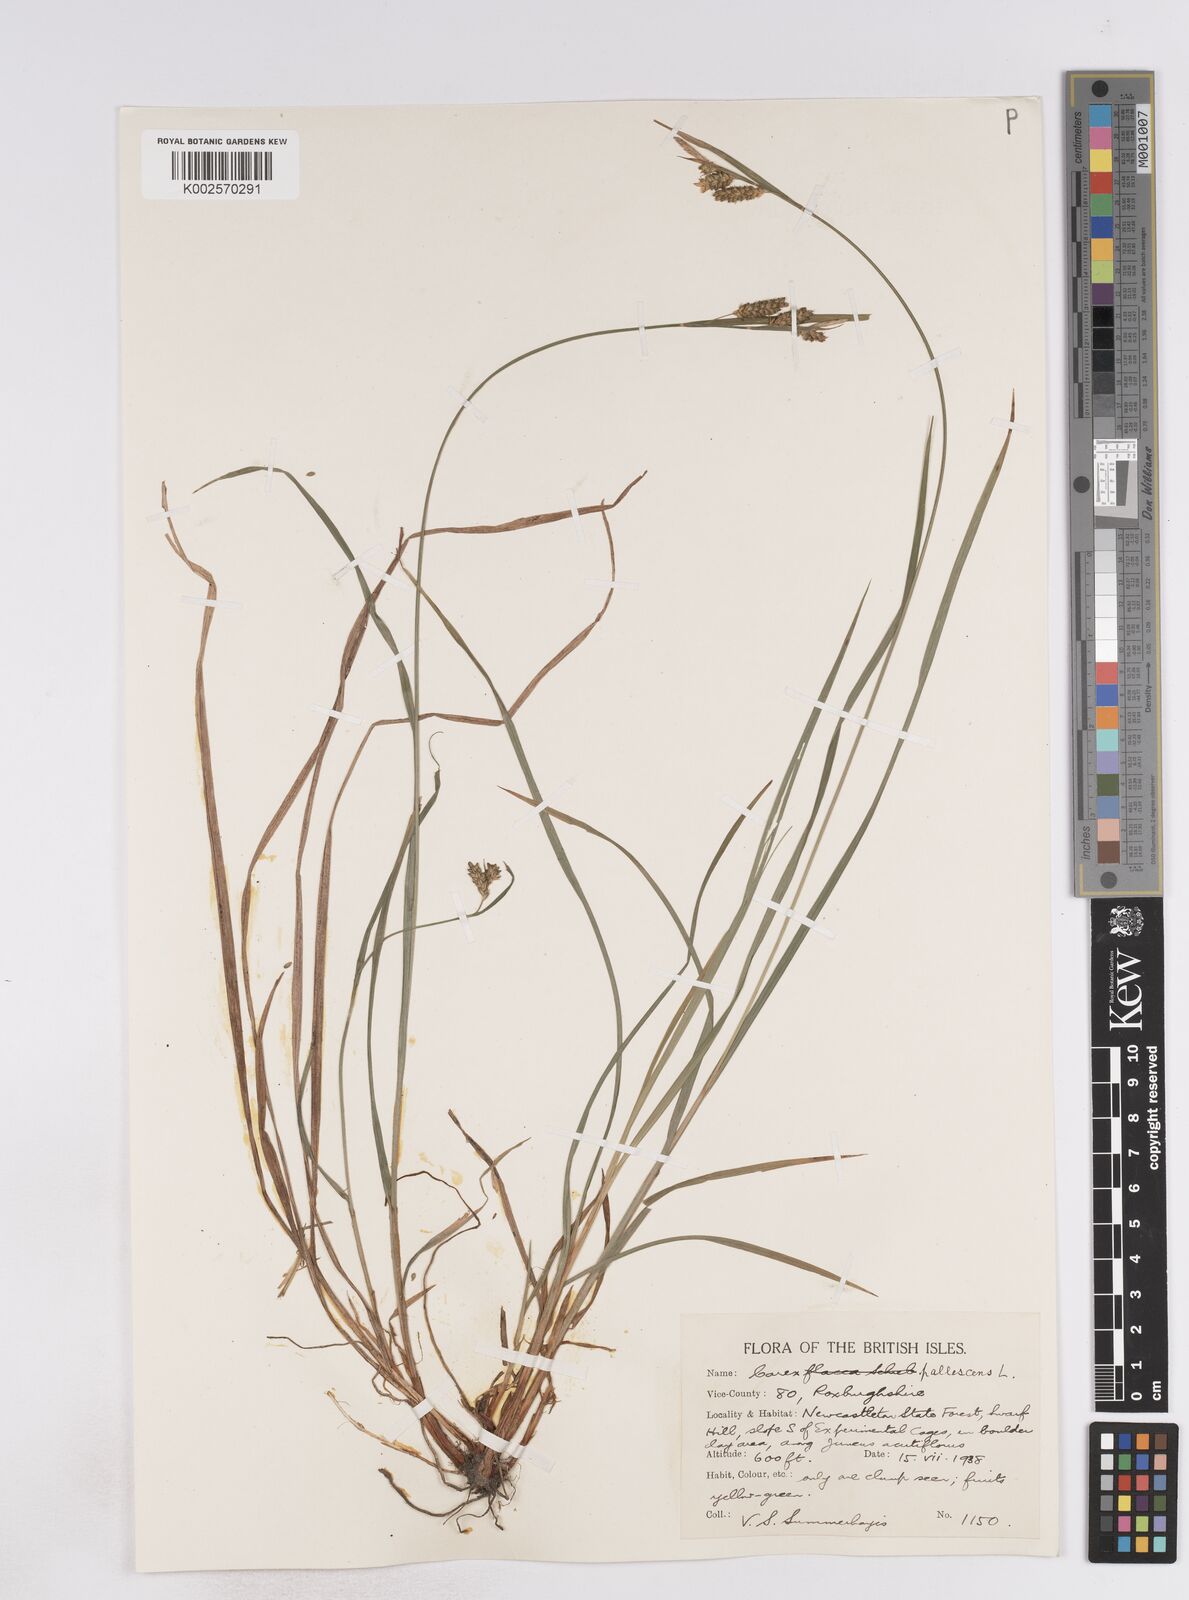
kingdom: Plantae
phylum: Tracheophyta
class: Liliopsida
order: Poales
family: Cyperaceae
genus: Carex
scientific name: Carex pallescens
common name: Pale sedge
